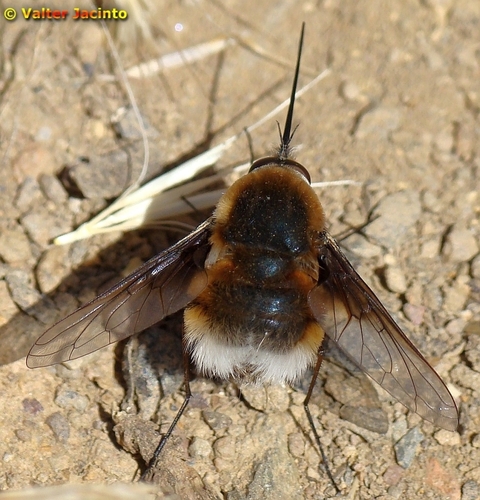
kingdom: Animalia
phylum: Arthropoda
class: Insecta
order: Diptera
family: Bombyliidae
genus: Bombylius
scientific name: Bombylius cruciatus
